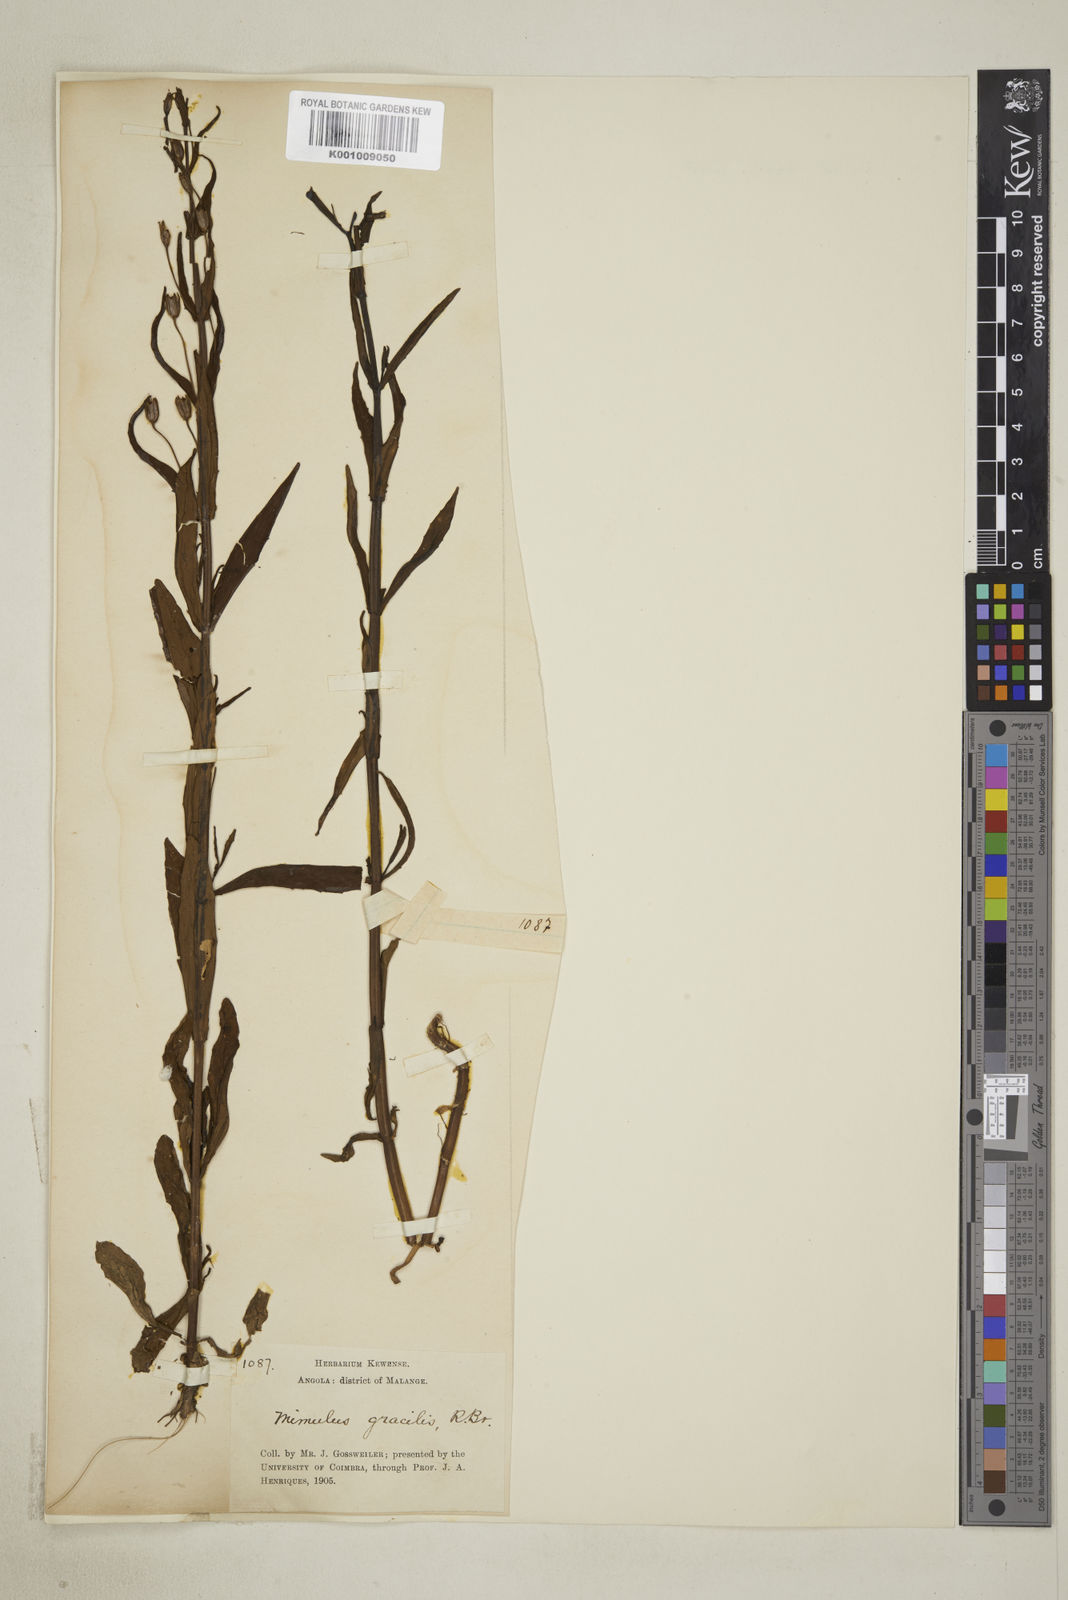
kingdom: Plantae
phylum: Tracheophyta
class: Magnoliopsida
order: Lamiales
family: Phrymaceae
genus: Mimulus
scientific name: Mimulus gracilis
